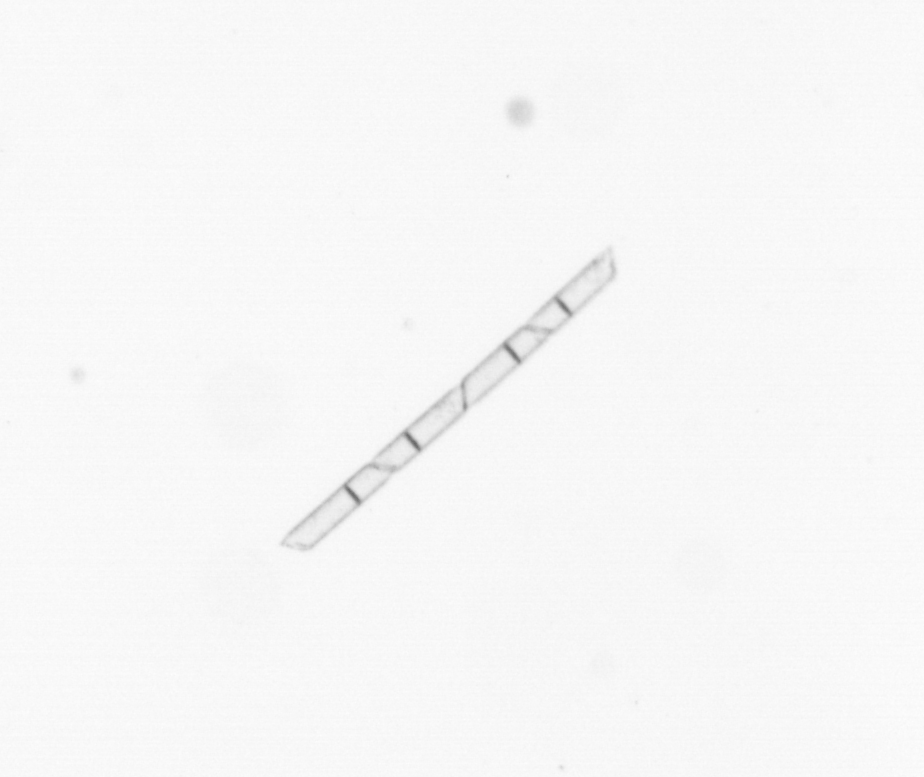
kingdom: Chromista
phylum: Ochrophyta
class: Bacillariophyceae
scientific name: Bacillariophyceae
